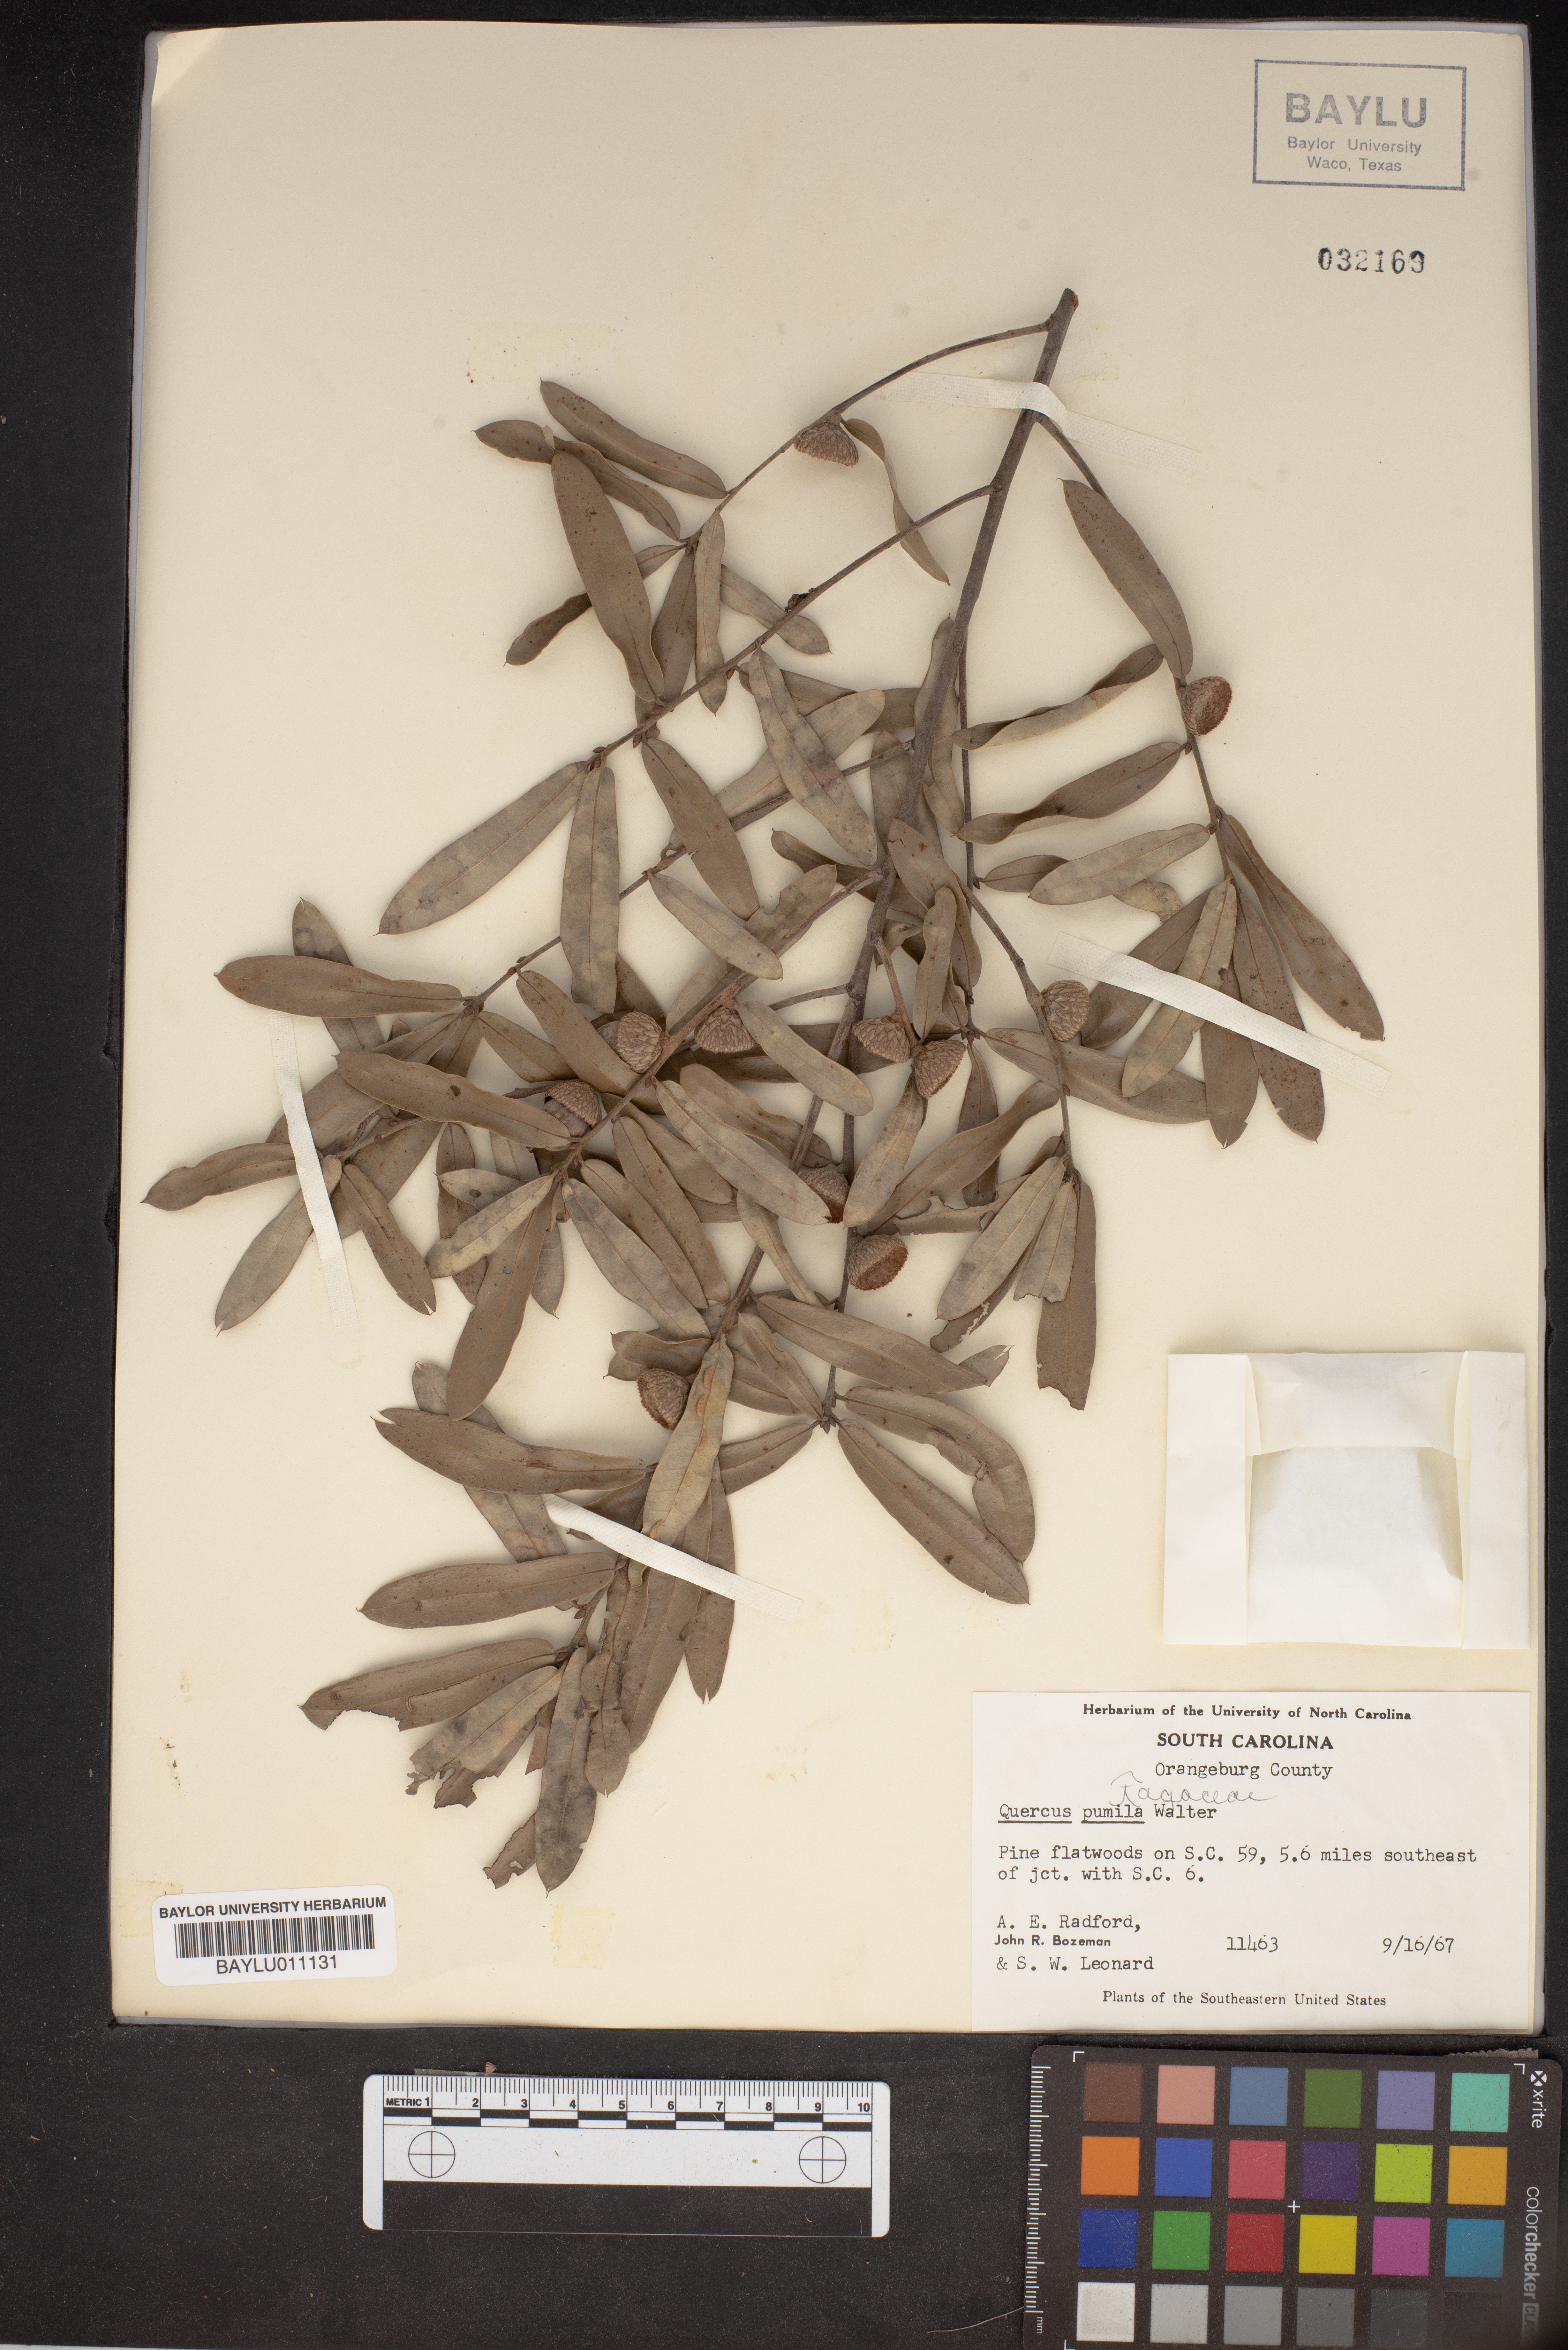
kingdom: Plantae
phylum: Tracheophyta
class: Magnoliopsida
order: Fagales
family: Fagaceae
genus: Quercus
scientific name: Quercus pumila
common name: Runner oak
